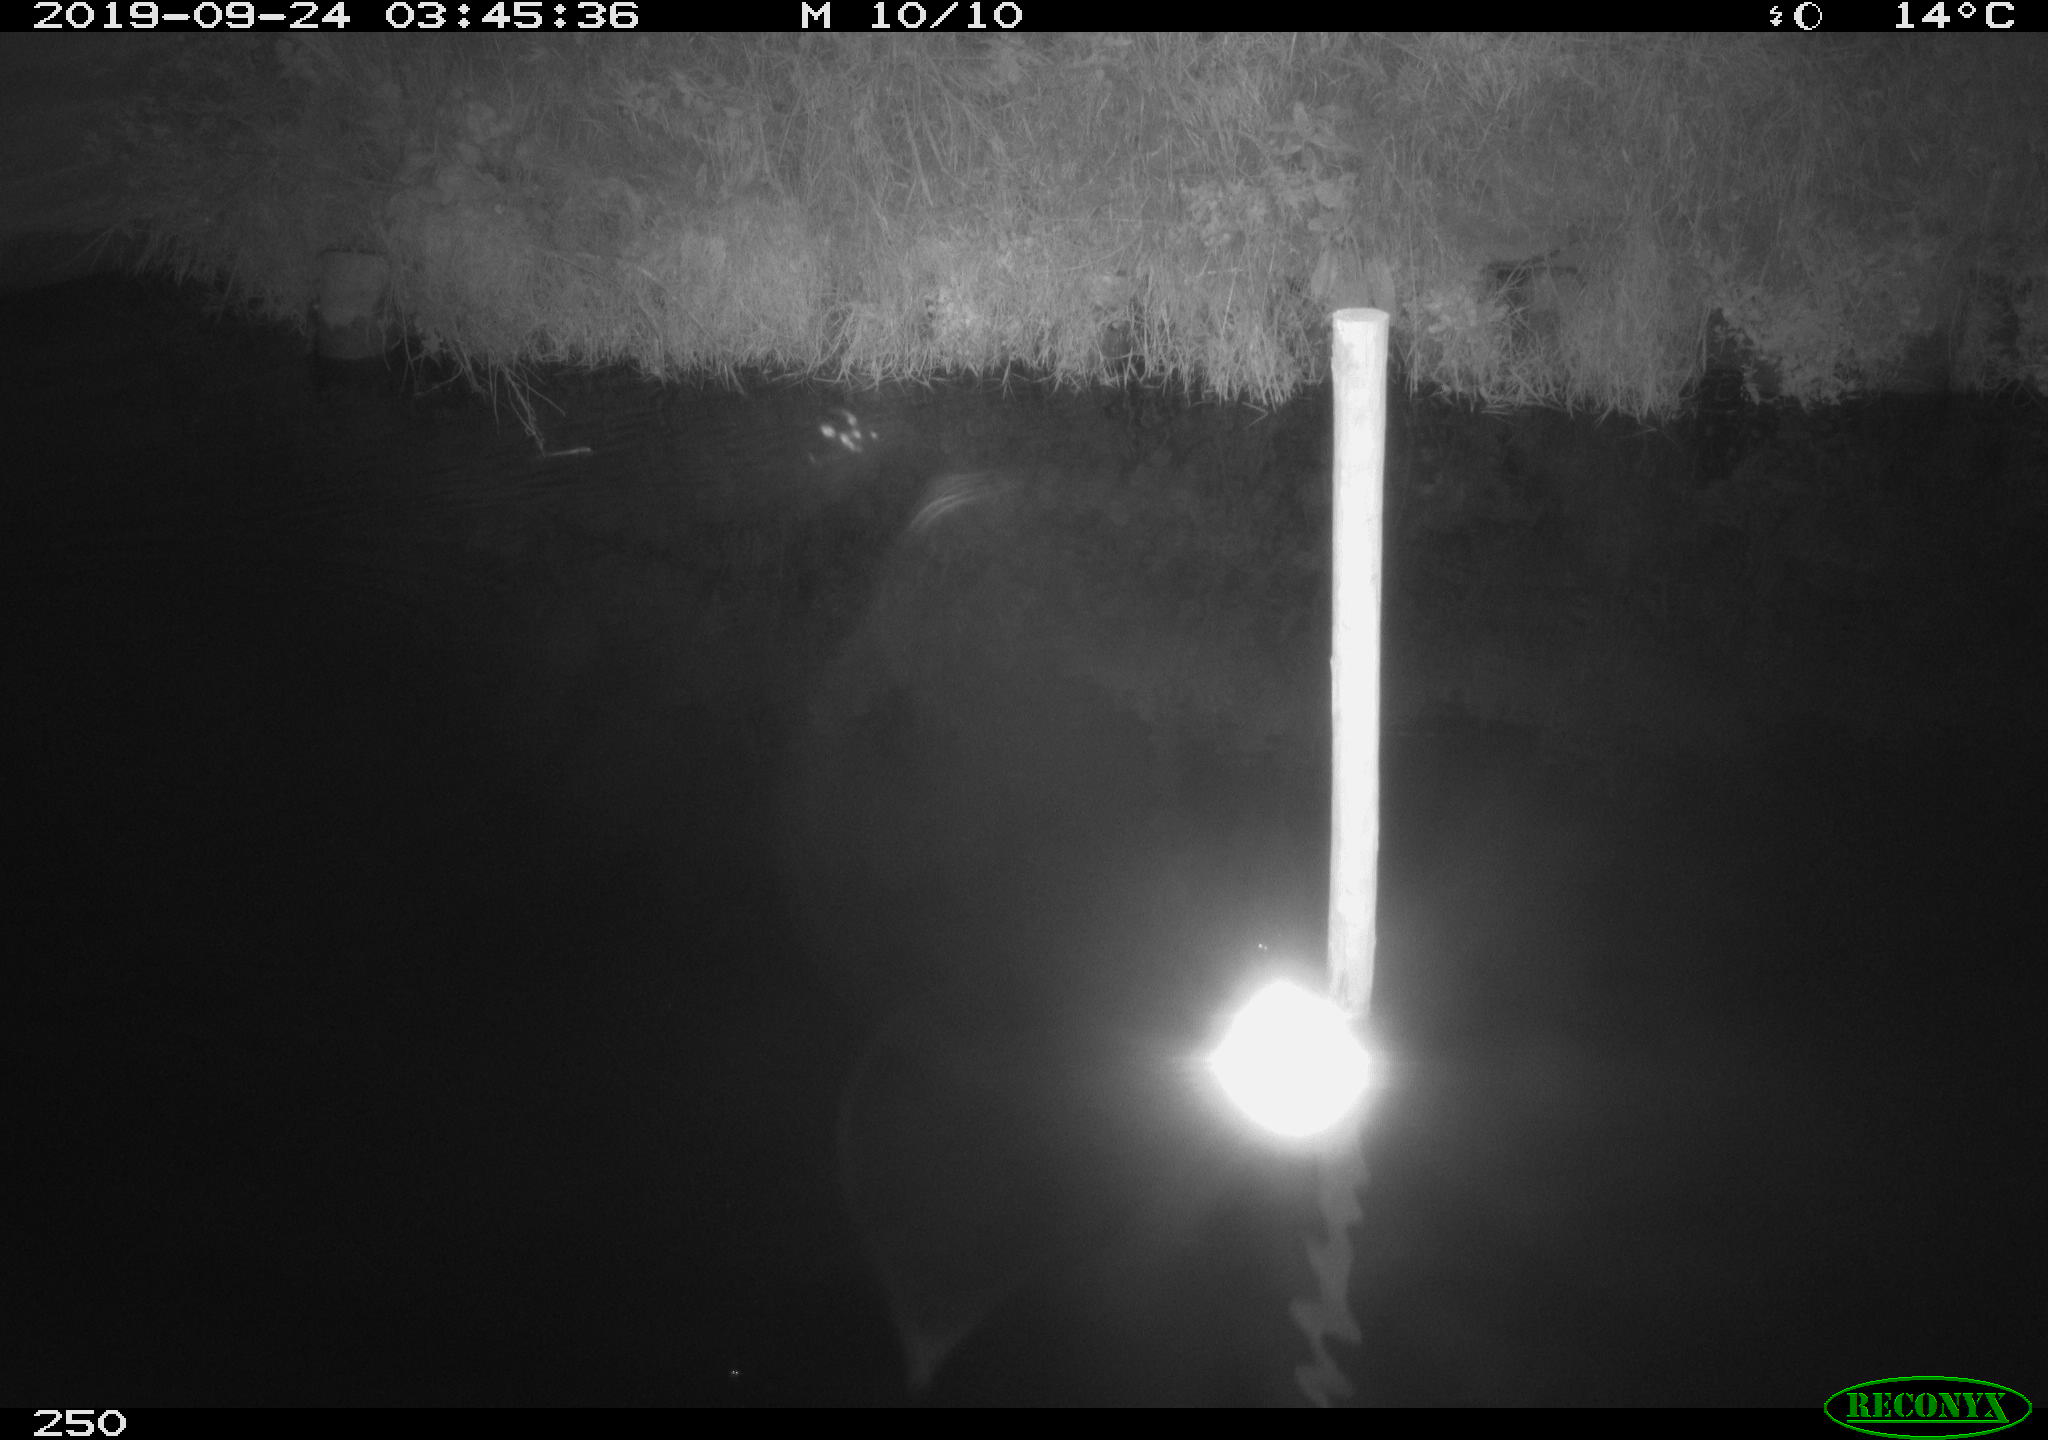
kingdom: Animalia
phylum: Chordata
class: Aves
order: Anseriformes
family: Anatidae
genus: Anas
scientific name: Anas platyrhynchos
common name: Mallard
